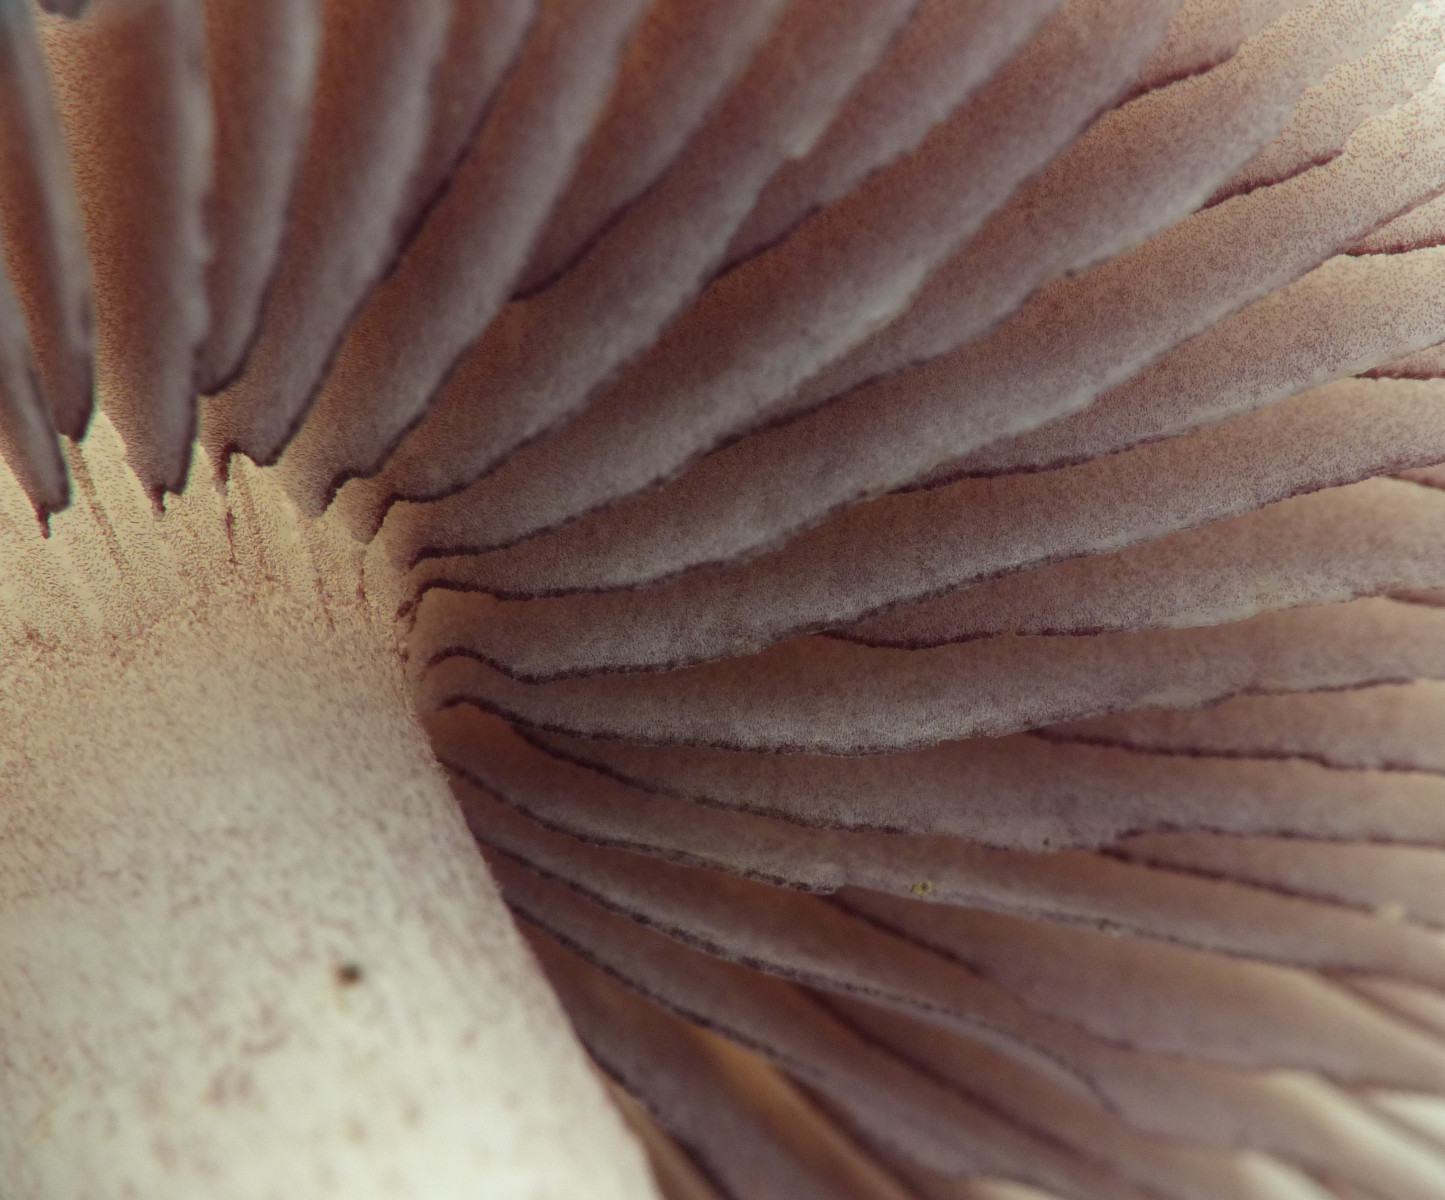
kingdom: Fungi
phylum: Basidiomycota
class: Agaricomycetes
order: Agaricales
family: Mycenaceae
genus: Mycena
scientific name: Mycena pelianthina
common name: mørkbladet huesvamp
